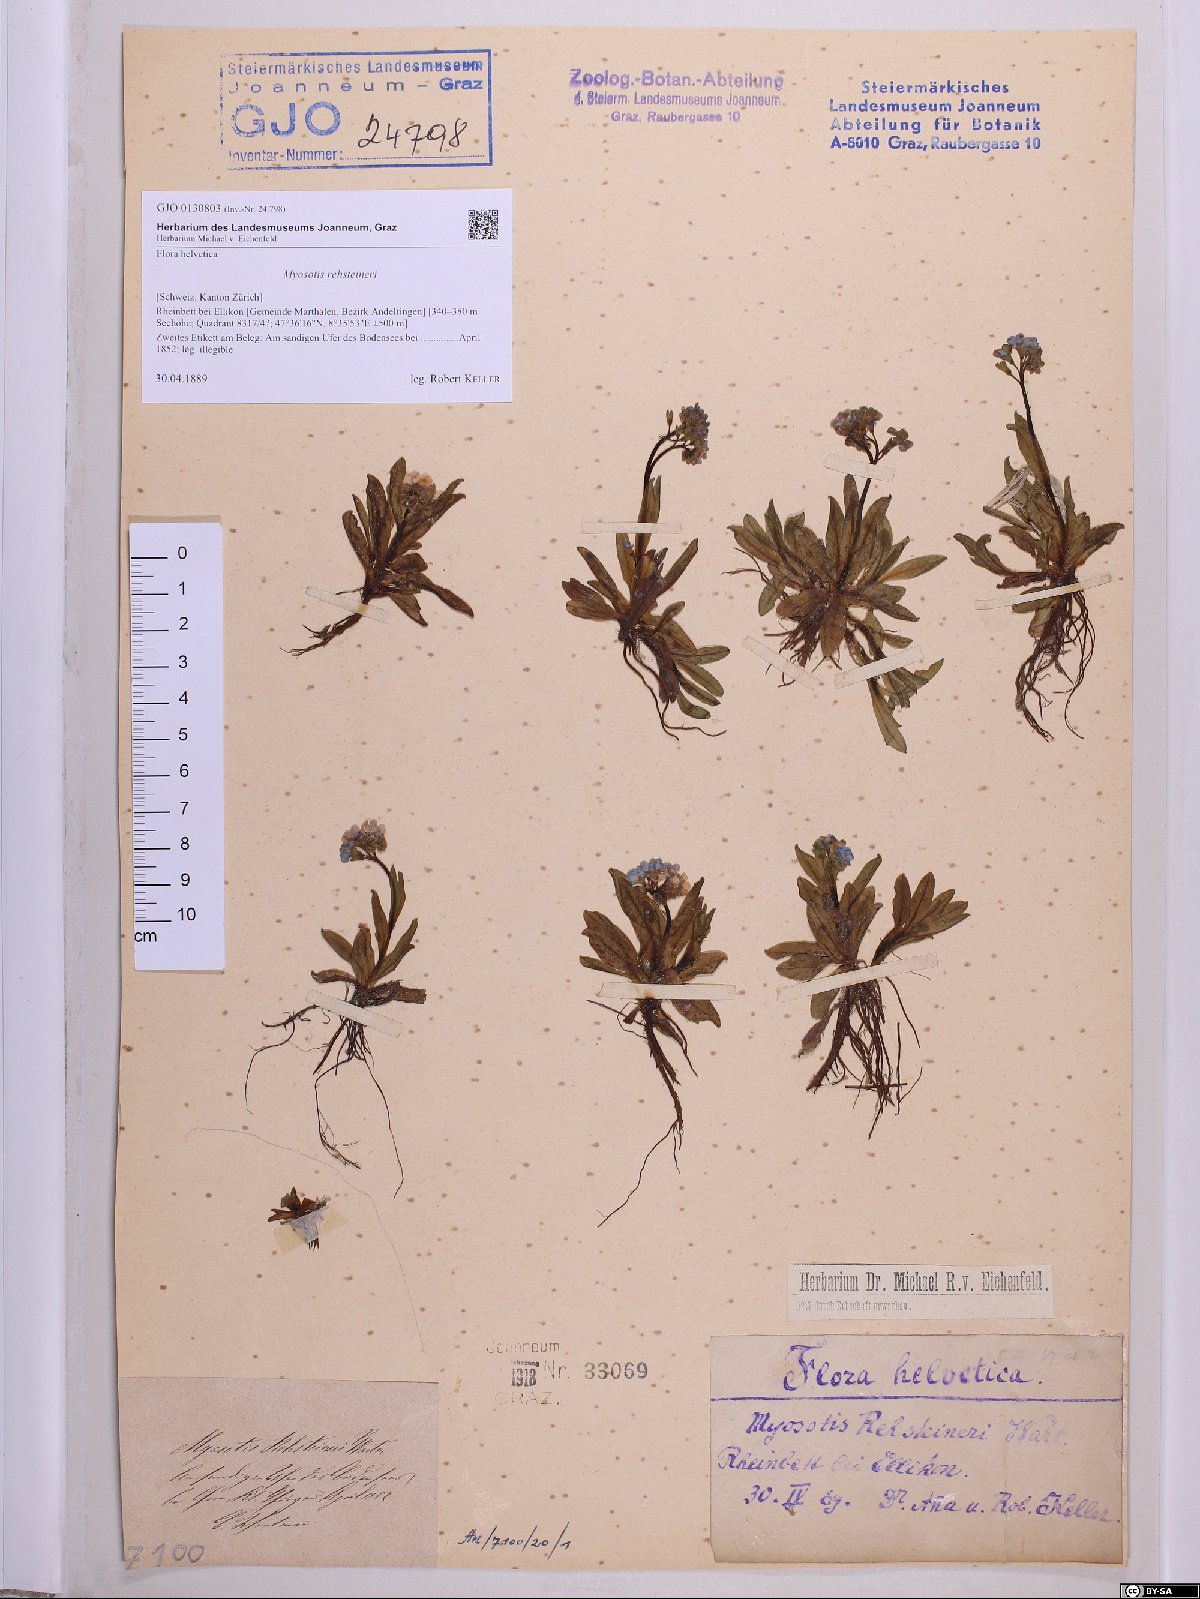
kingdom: Plantae
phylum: Tracheophyta
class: Magnoliopsida
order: Boraginales
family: Boraginaceae
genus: Myosotis
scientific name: Myosotis rehsteineri
